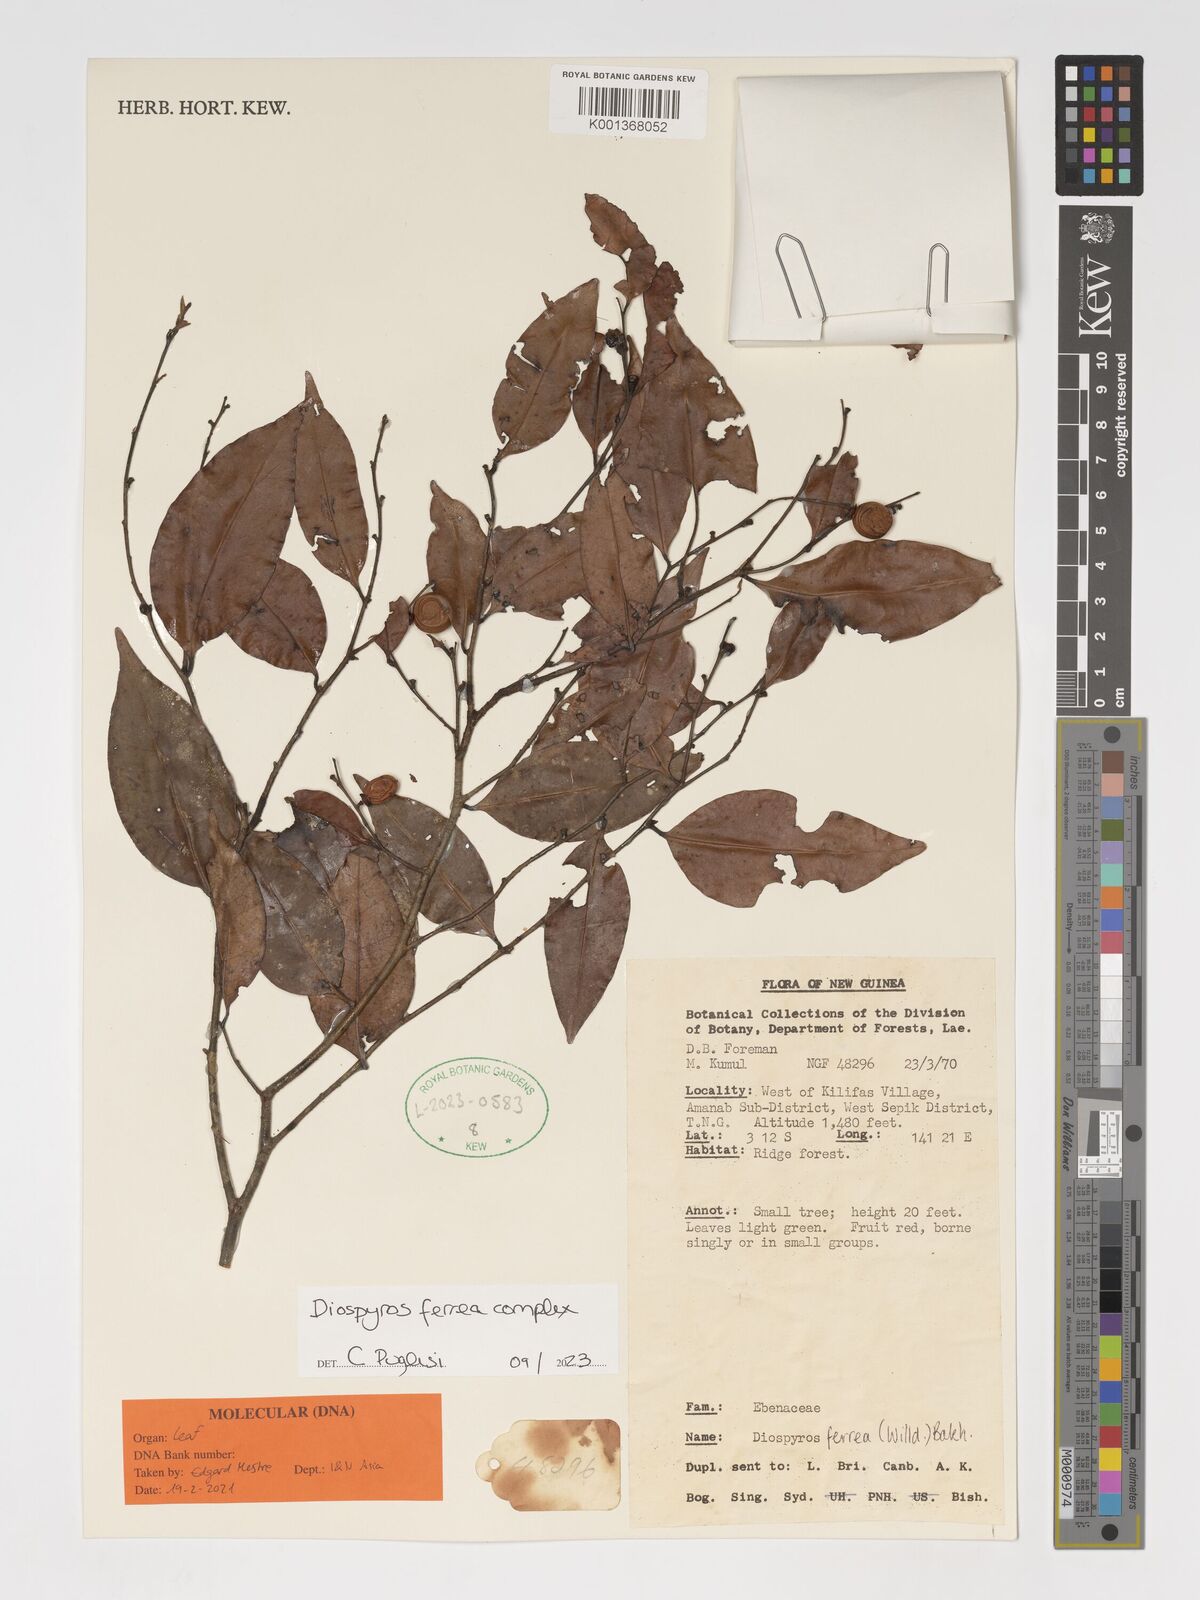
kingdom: Plantae
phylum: Tracheophyta
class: Magnoliopsida
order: Ericales
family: Ebenaceae
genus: Diospyros
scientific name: Diospyros ferrea
